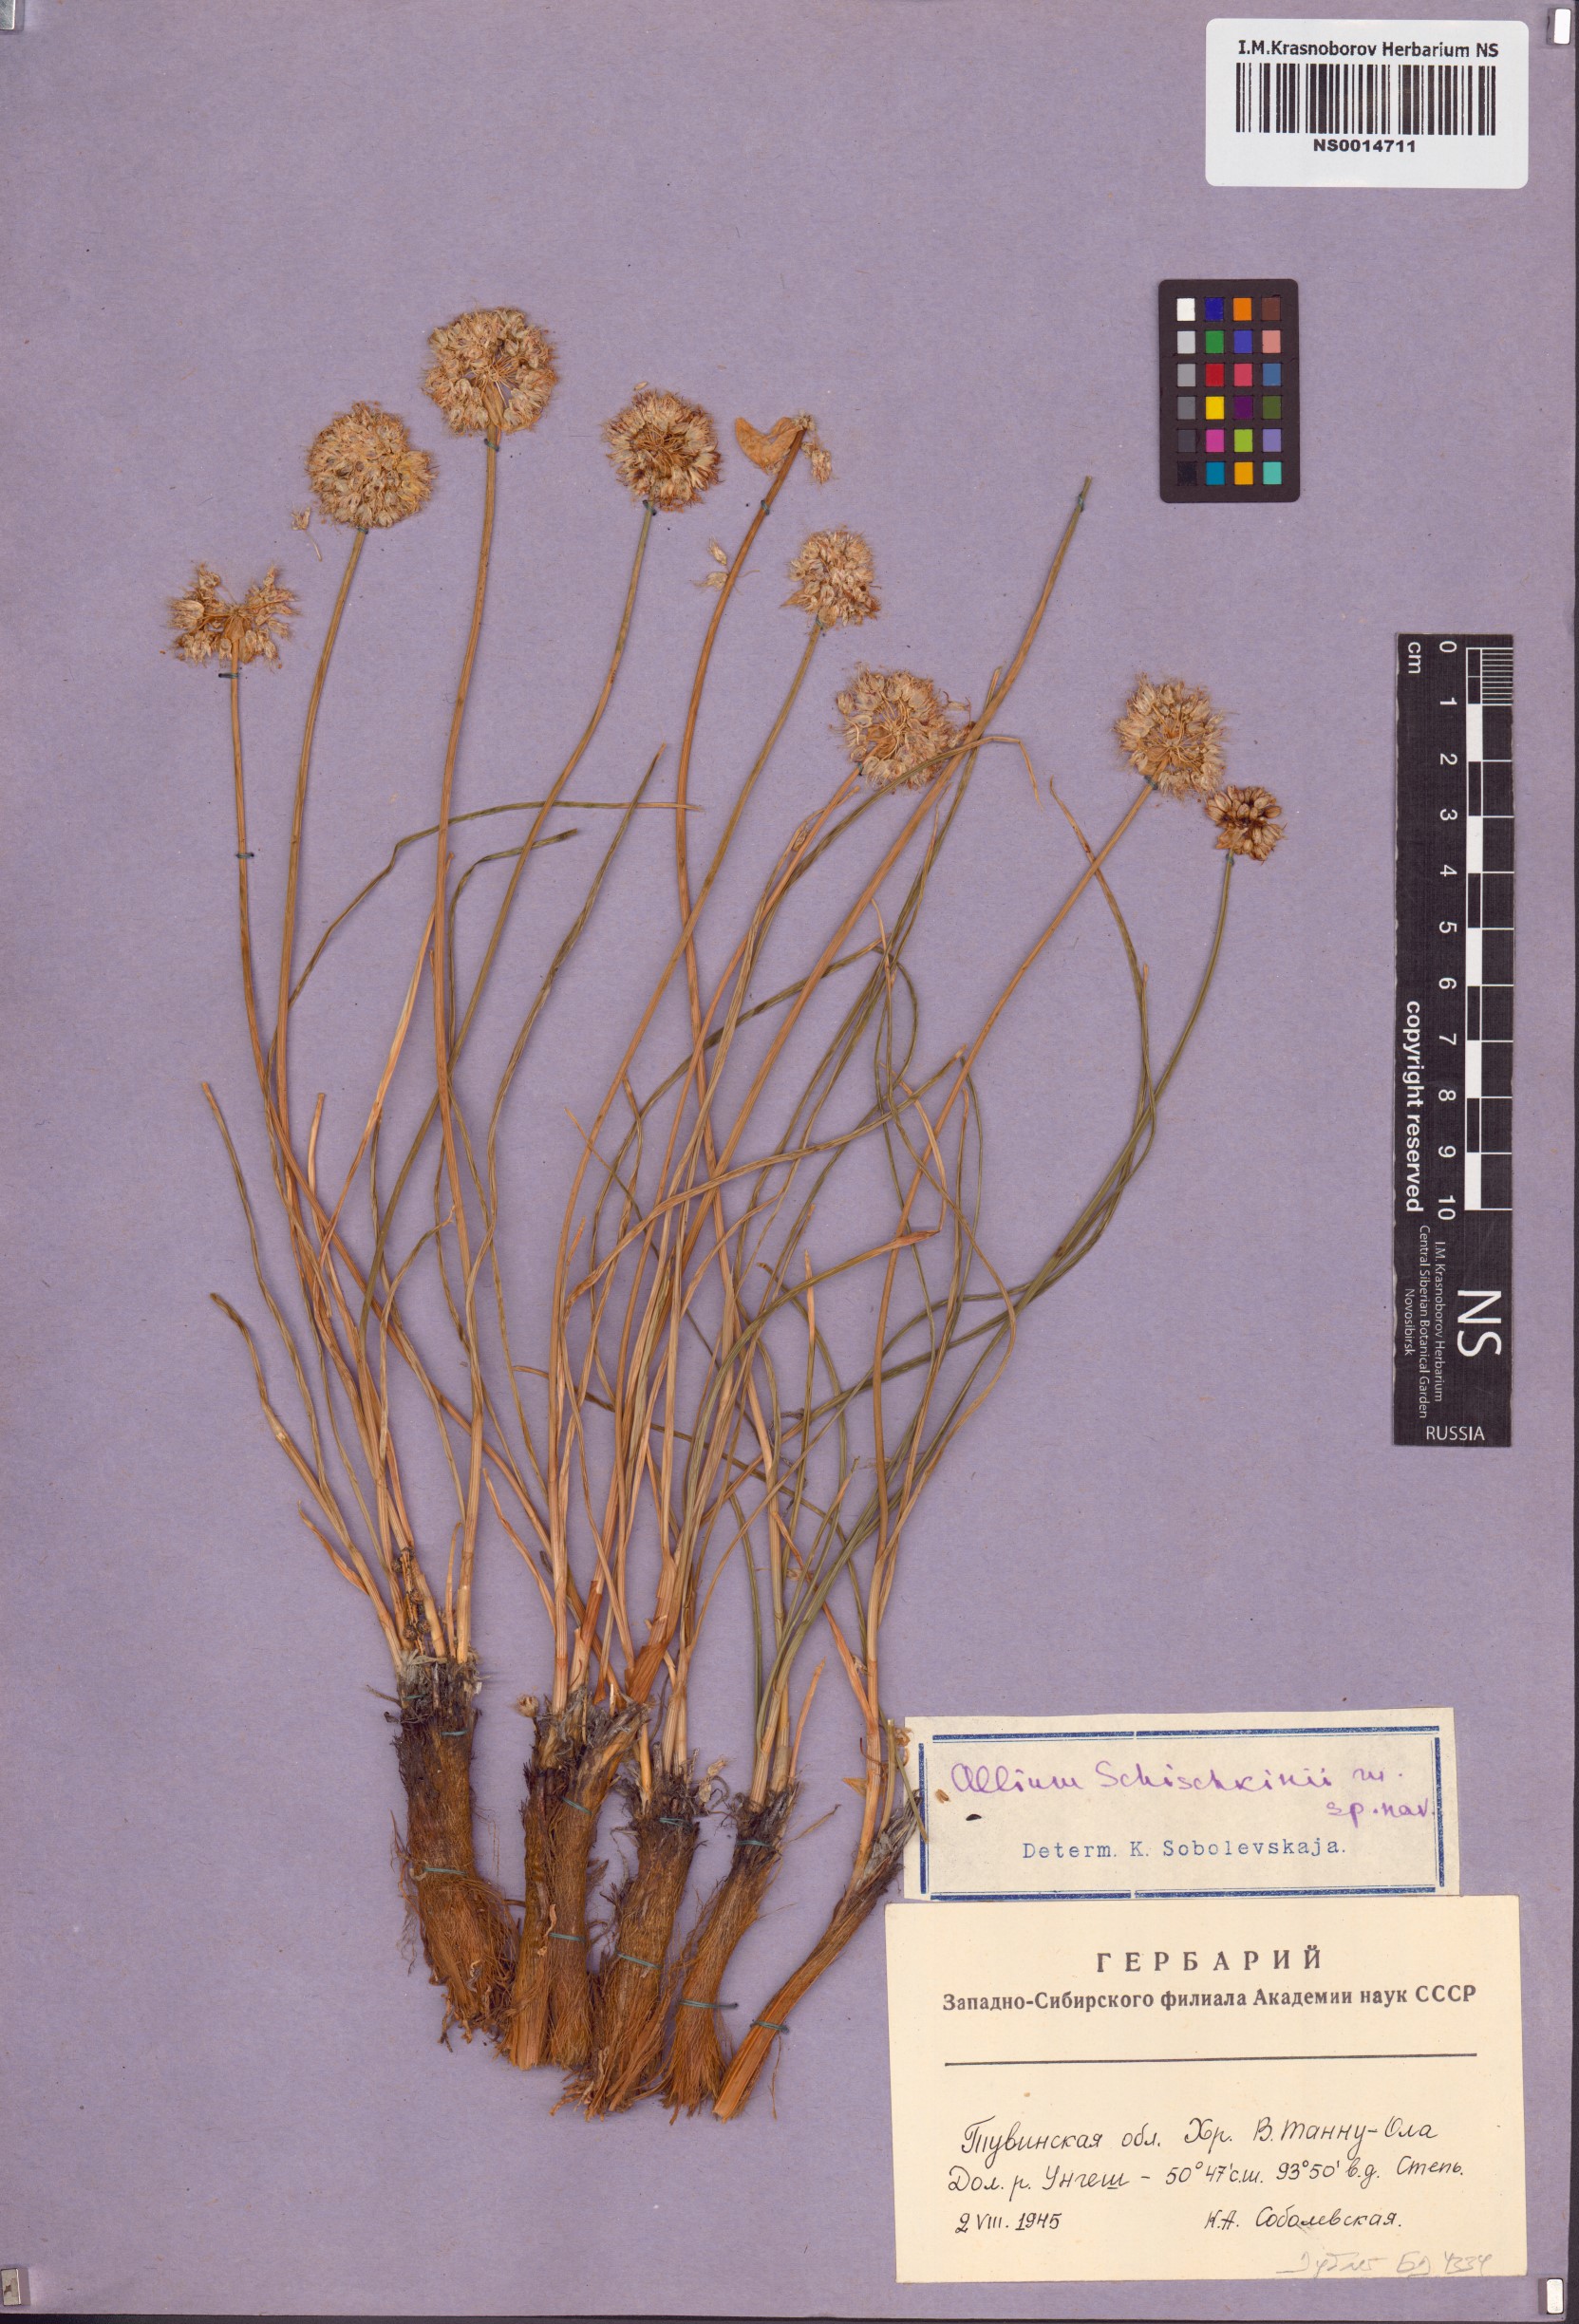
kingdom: Plantae
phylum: Tracheophyta
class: Liliopsida
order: Asparagales
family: Amaryllidaceae
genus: Allium
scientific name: Allium schischkinii
